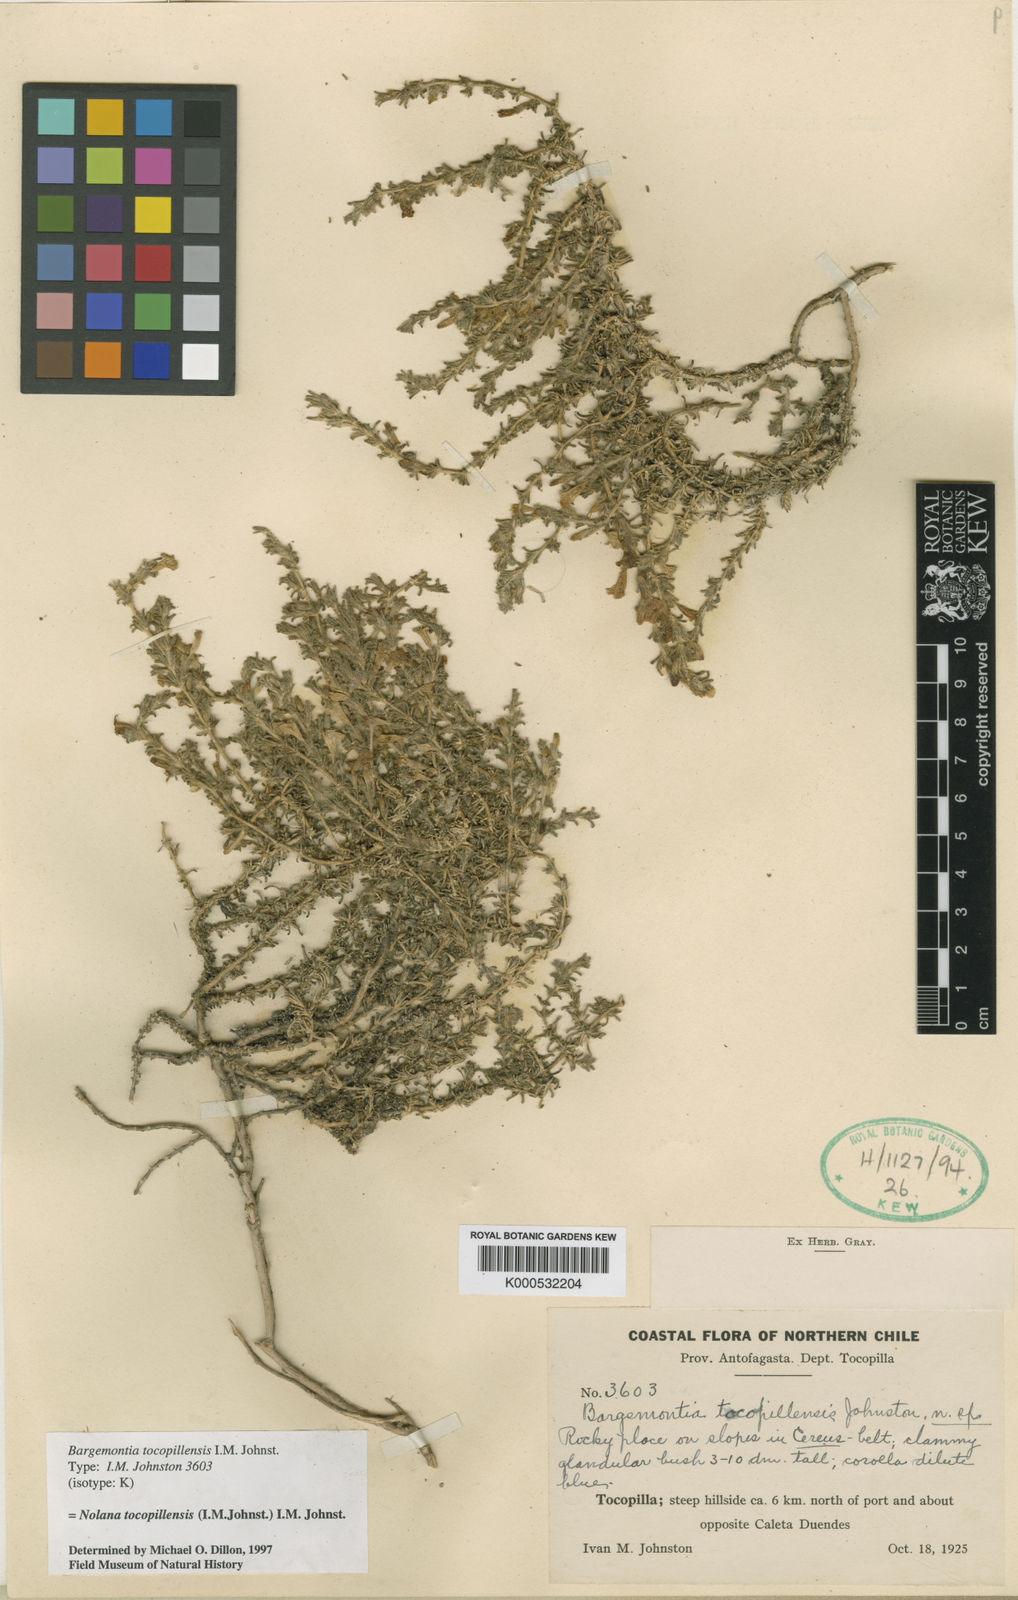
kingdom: Plantae
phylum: Tracheophyta
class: Magnoliopsida
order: Solanales
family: Solanaceae
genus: Nolana
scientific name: Nolana sedifolia
